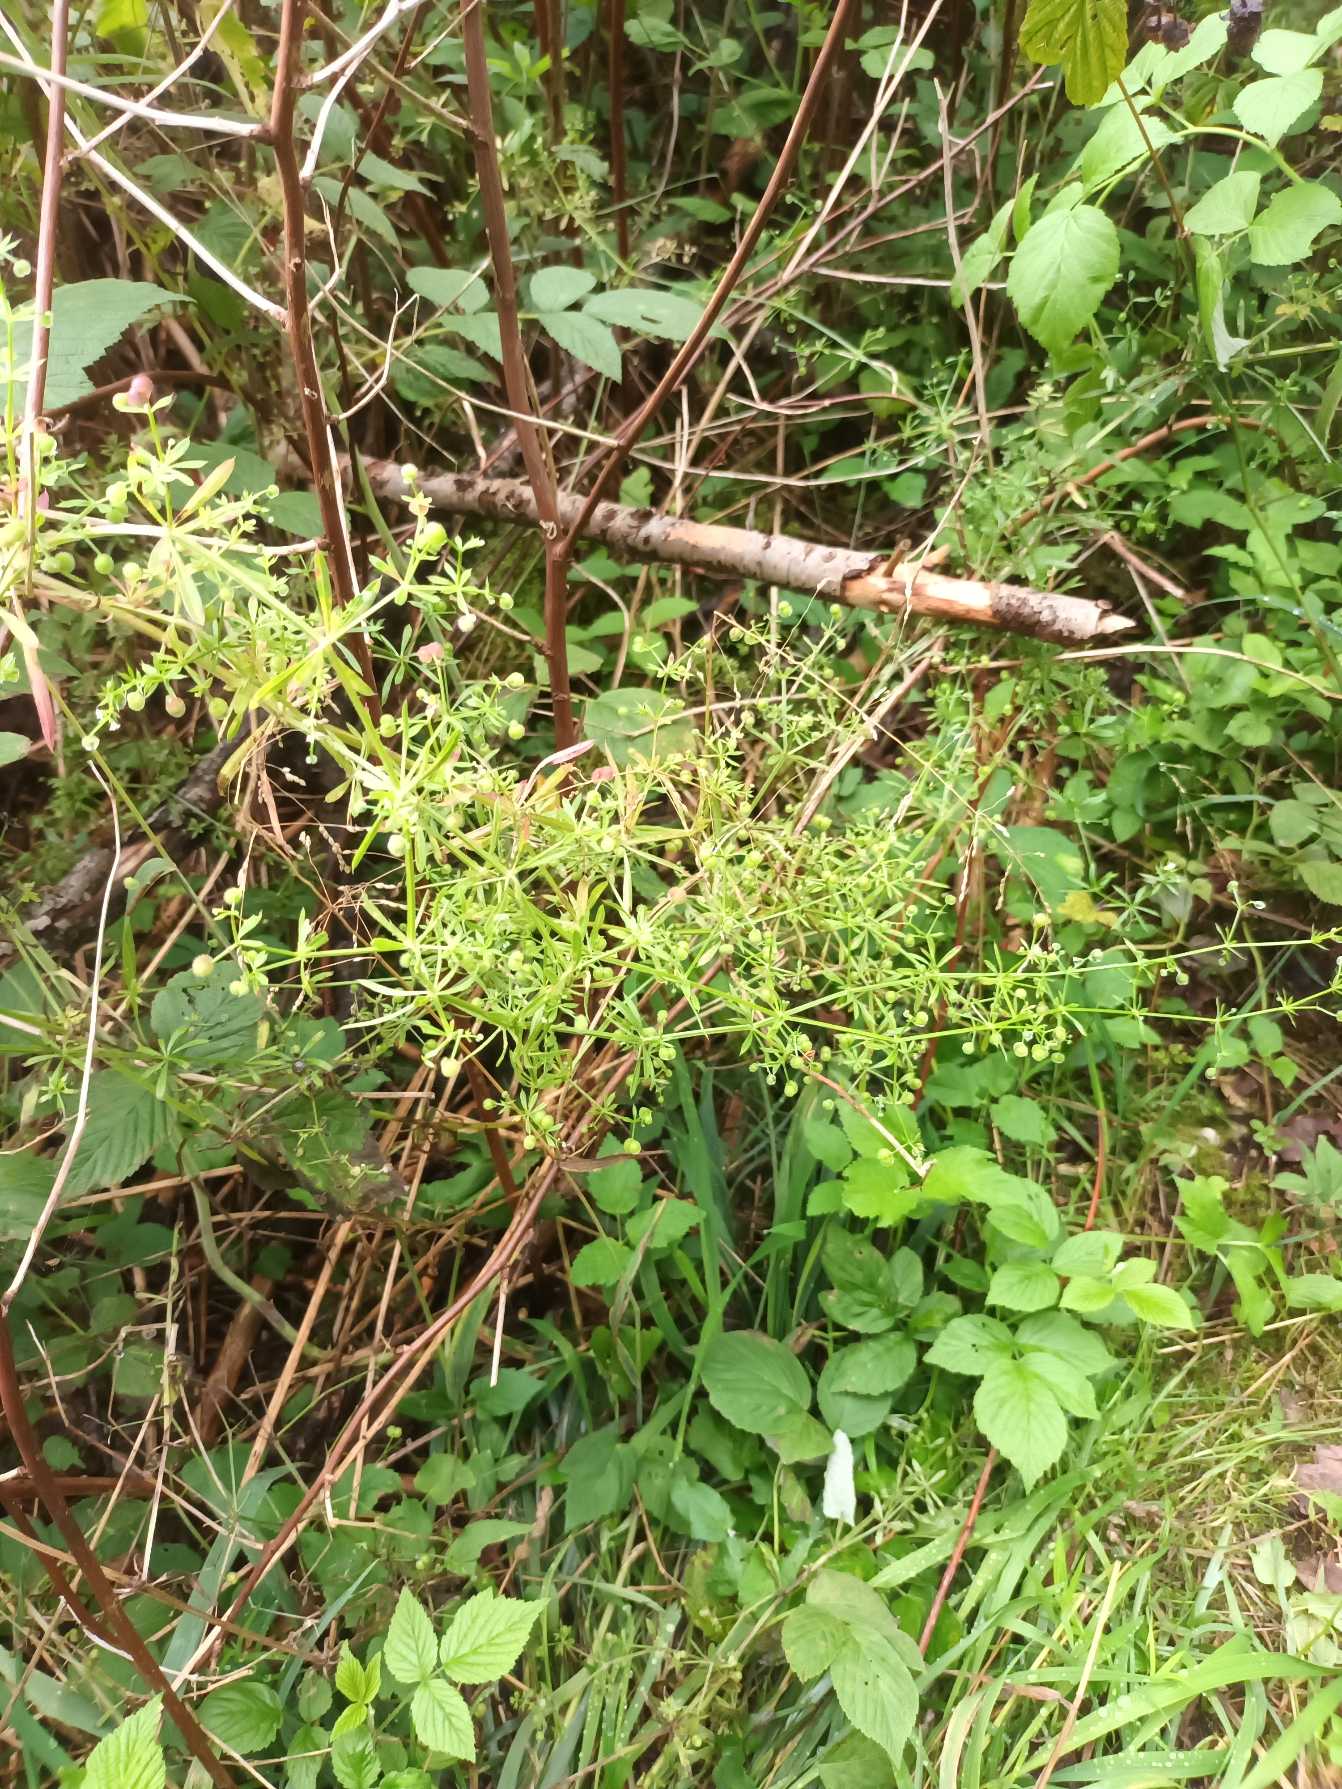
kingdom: Plantae
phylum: Tracheophyta
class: Magnoliopsida
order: Gentianales
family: Rubiaceae
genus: Galium
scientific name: Galium aparine
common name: Burre-snerre
